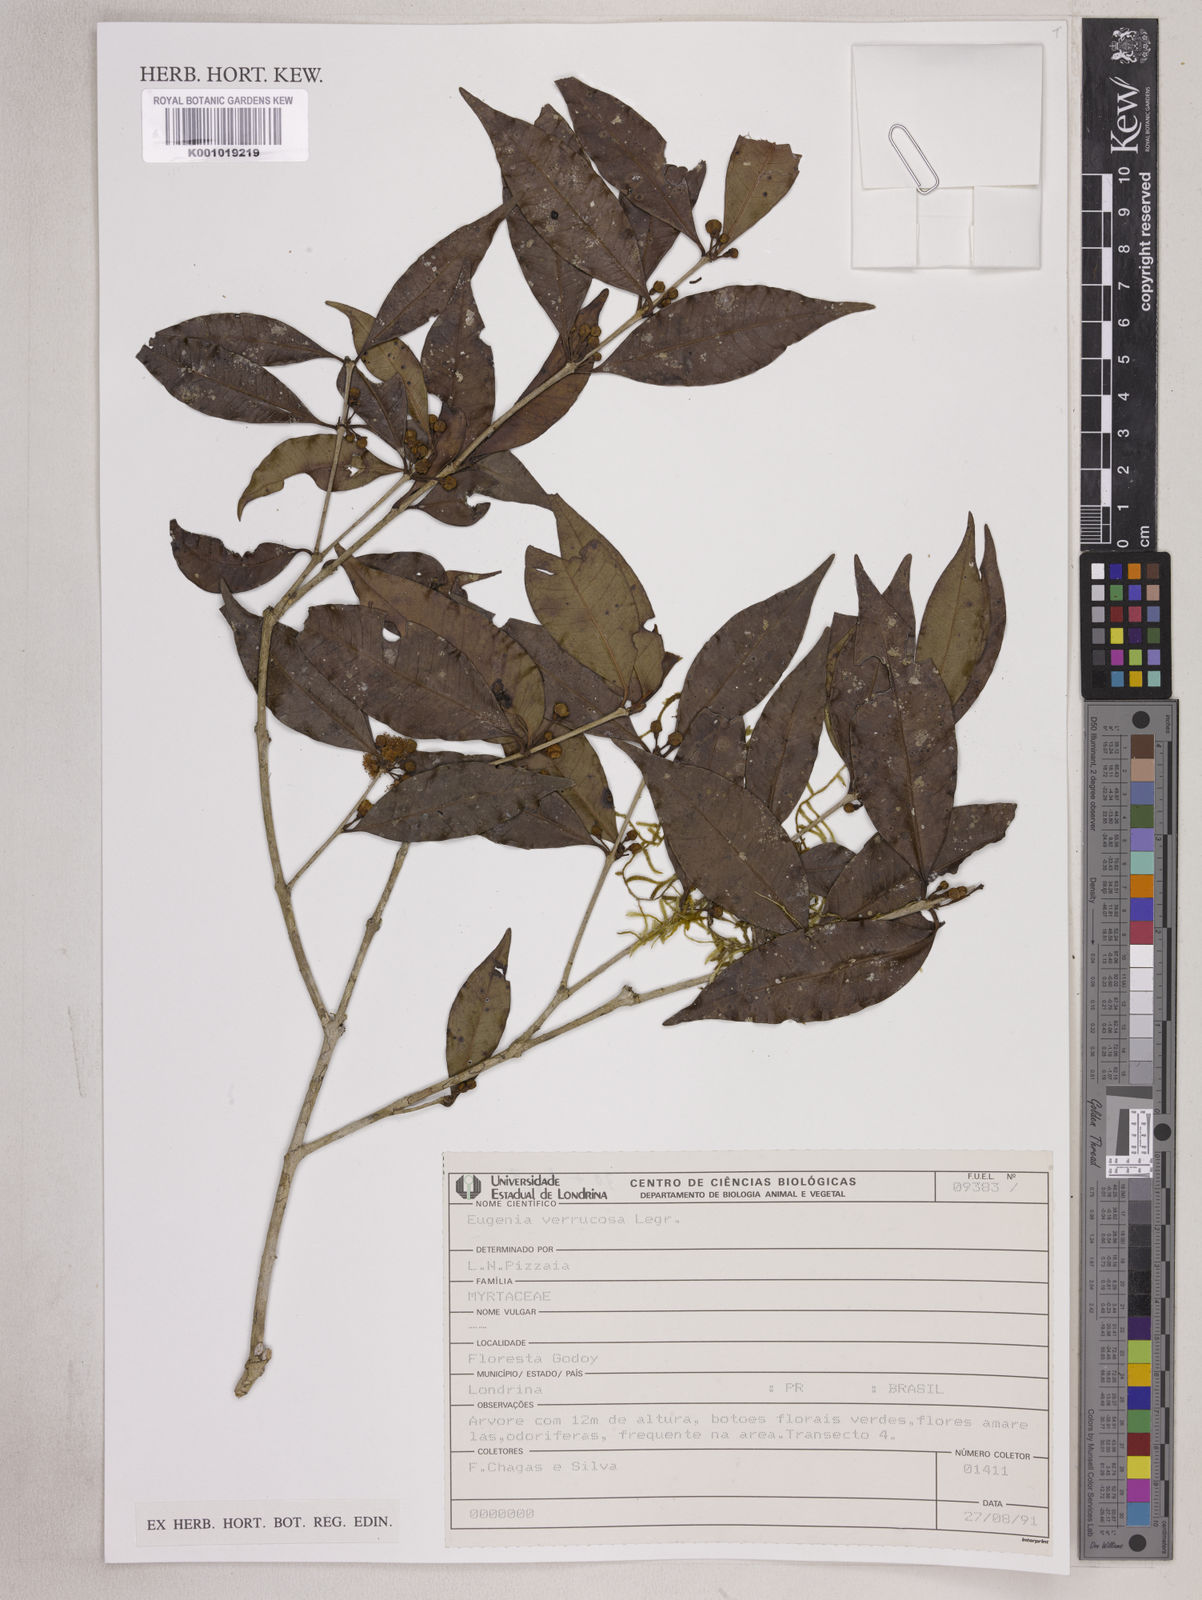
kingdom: Plantae
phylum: Tracheophyta
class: Magnoliopsida
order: Myrtales
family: Myrtaceae
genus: Eugenia
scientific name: Eugenia neoverrucosa
